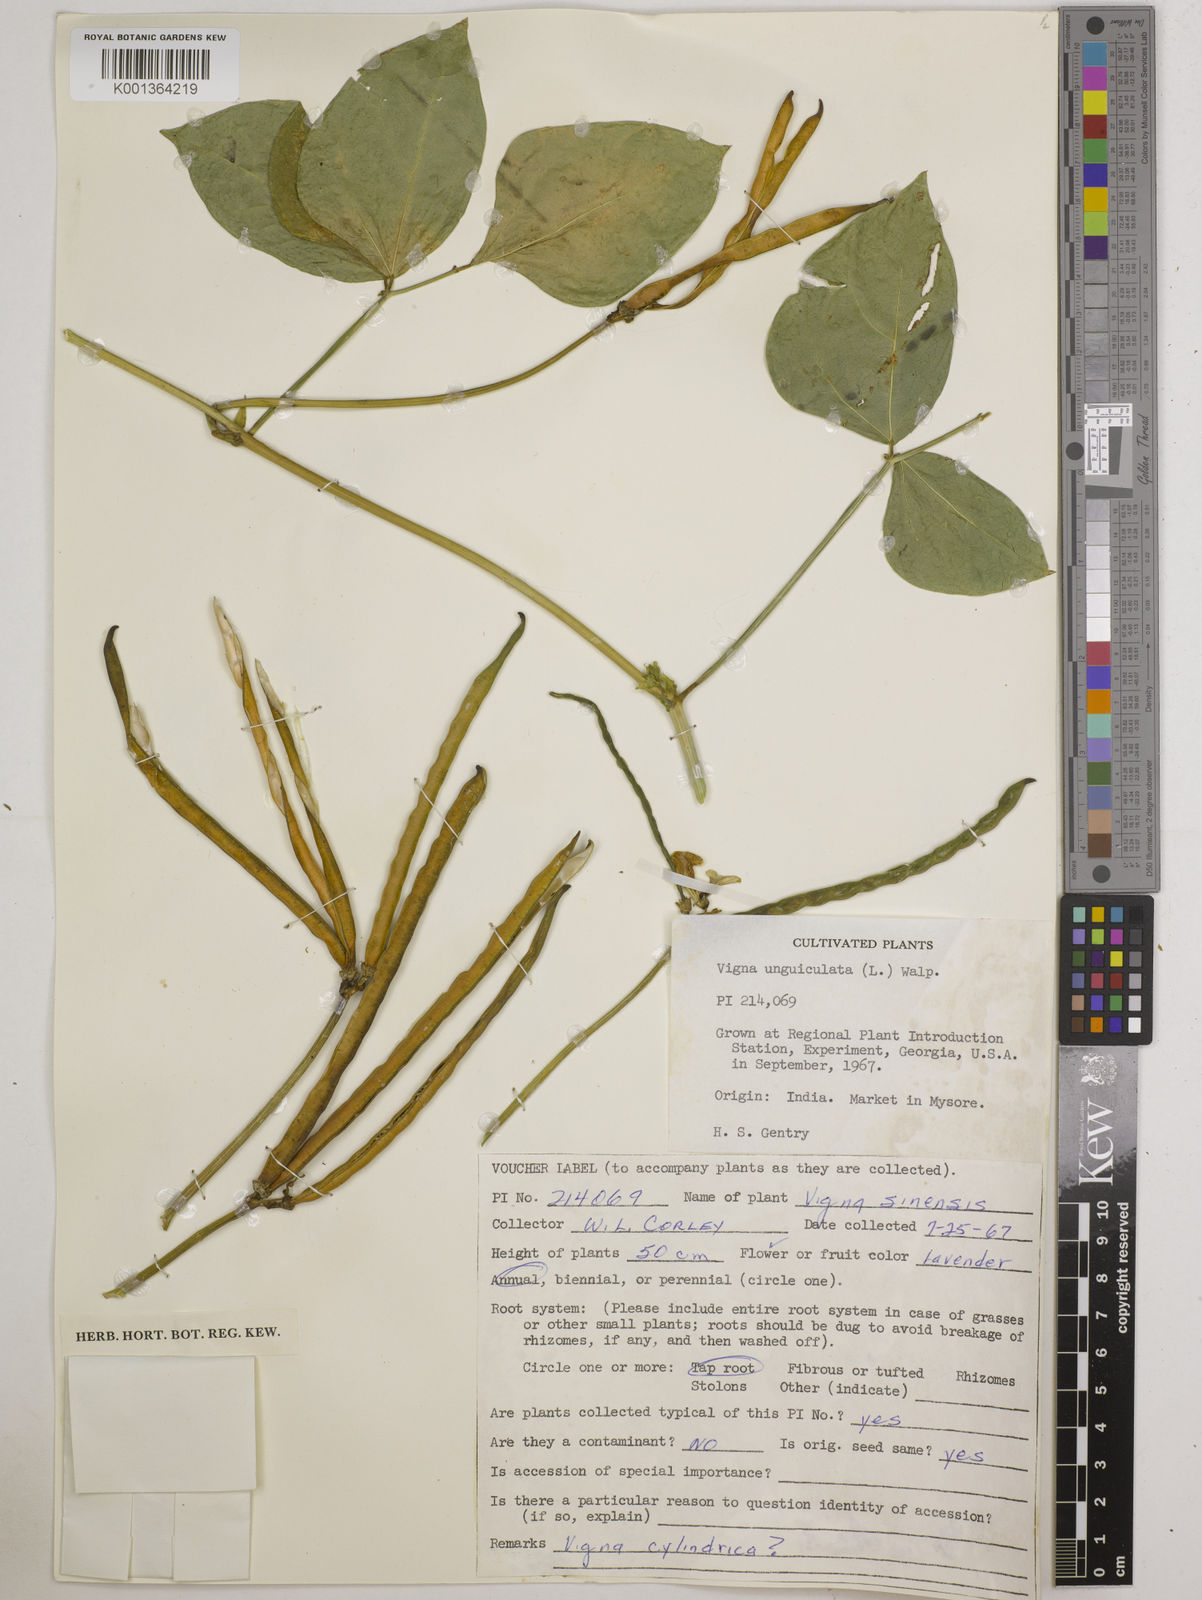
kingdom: Plantae
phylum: Tracheophyta
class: Magnoliopsida
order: Fabales
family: Fabaceae
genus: Vigna
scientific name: Vigna
